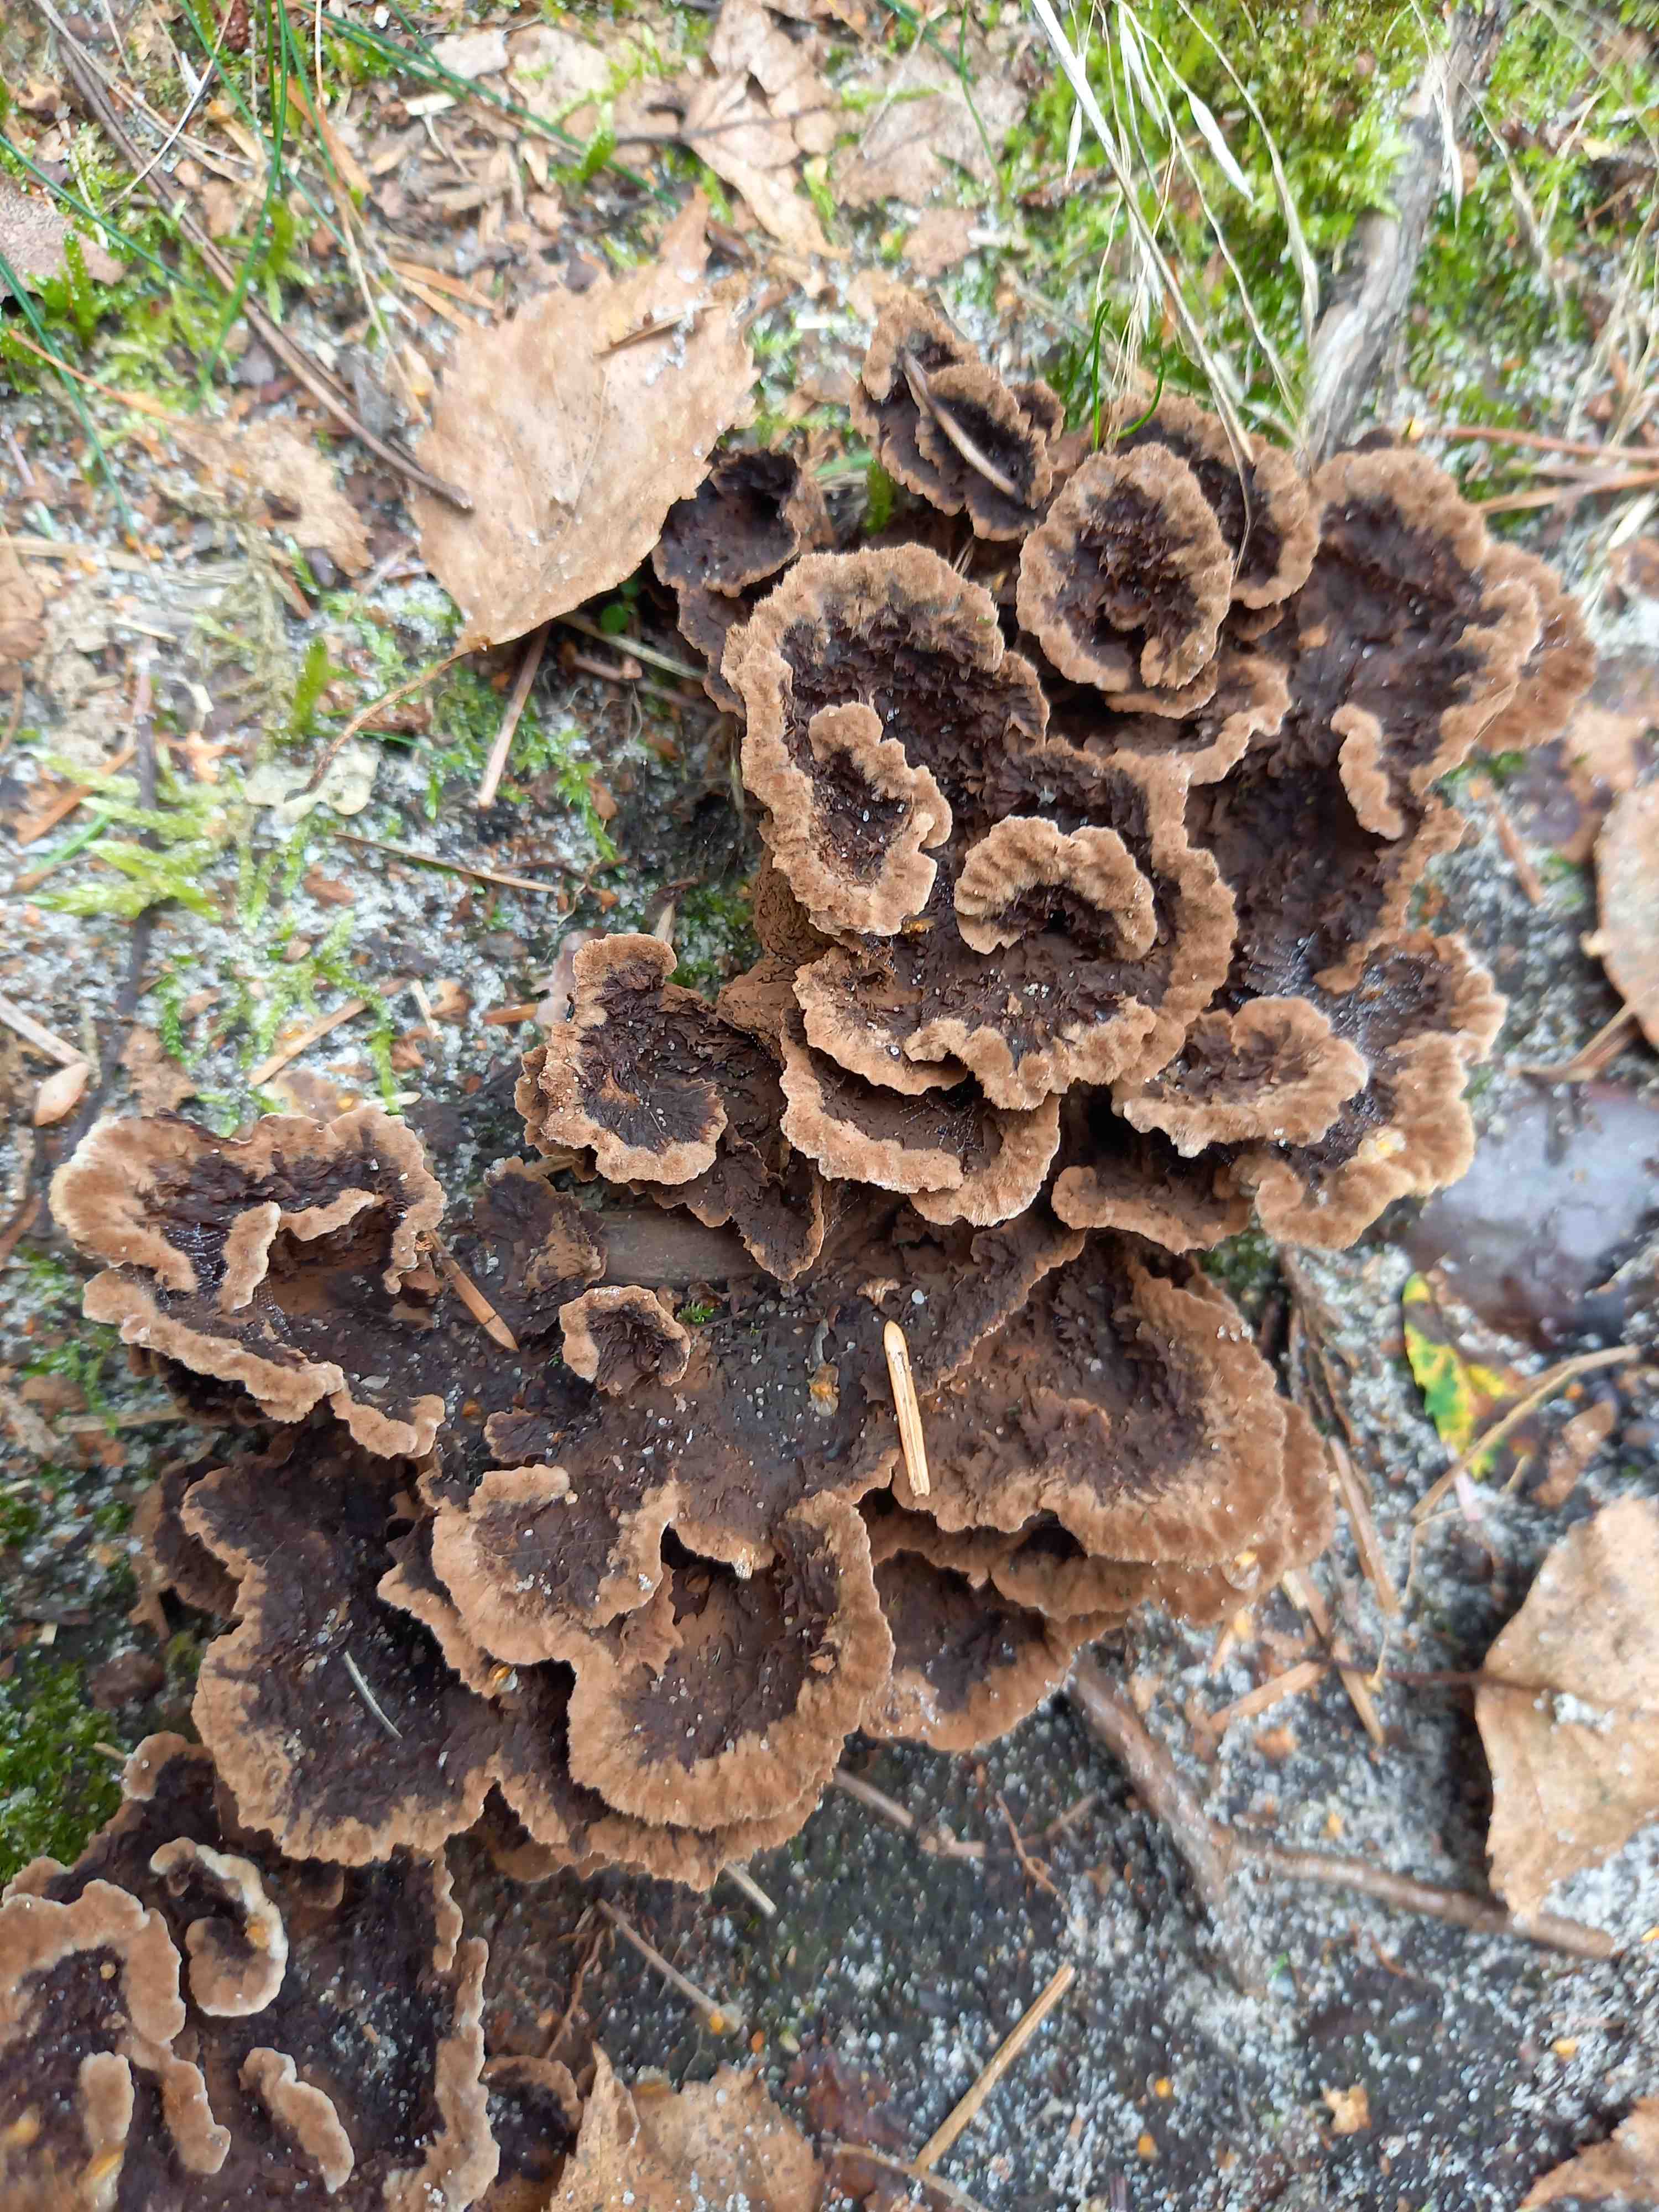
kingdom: Fungi
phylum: Basidiomycota
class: Agaricomycetes
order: Thelephorales
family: Thelephoraceae
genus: Thelephora
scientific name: Thelephora terrestris
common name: fliget frynsesvamp
